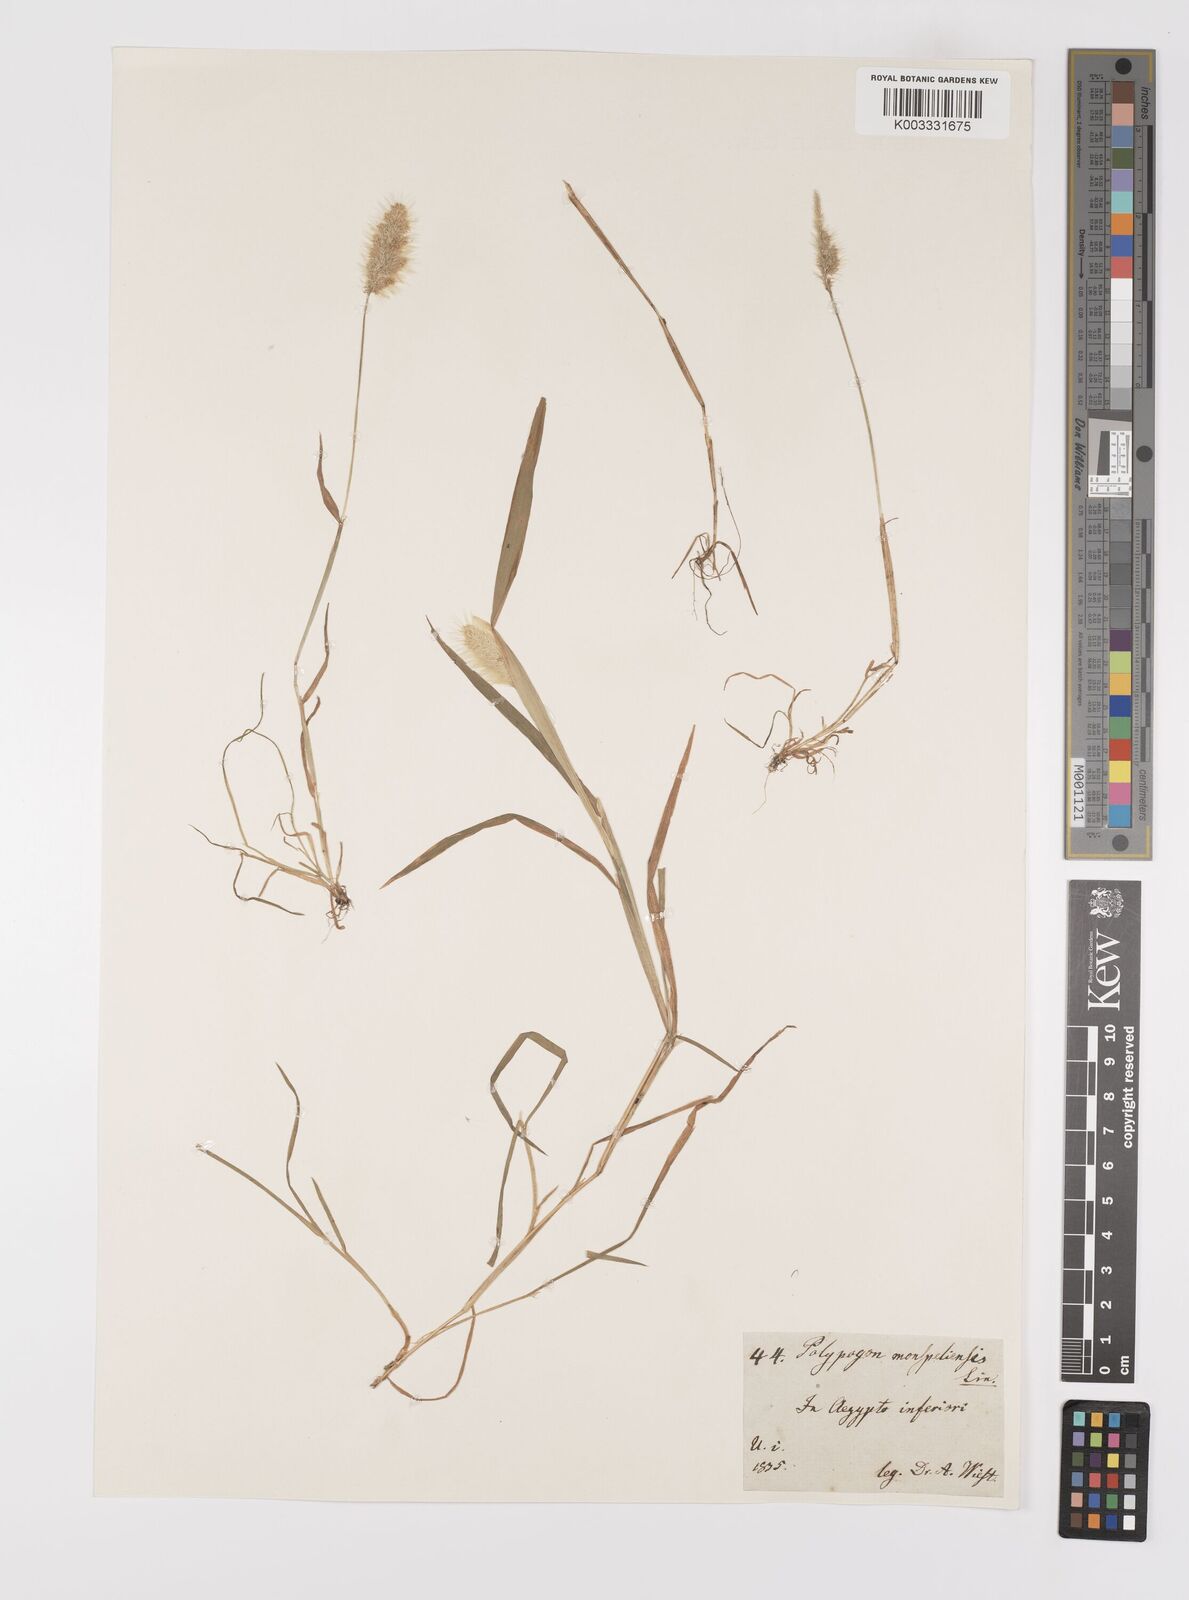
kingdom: Plantae
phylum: Tracheophyta
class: Liliopsida
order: Poales
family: Poaceae
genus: Polypogon
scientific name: Polypogon monspeliensis
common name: Annual rabbitsfoot grass
